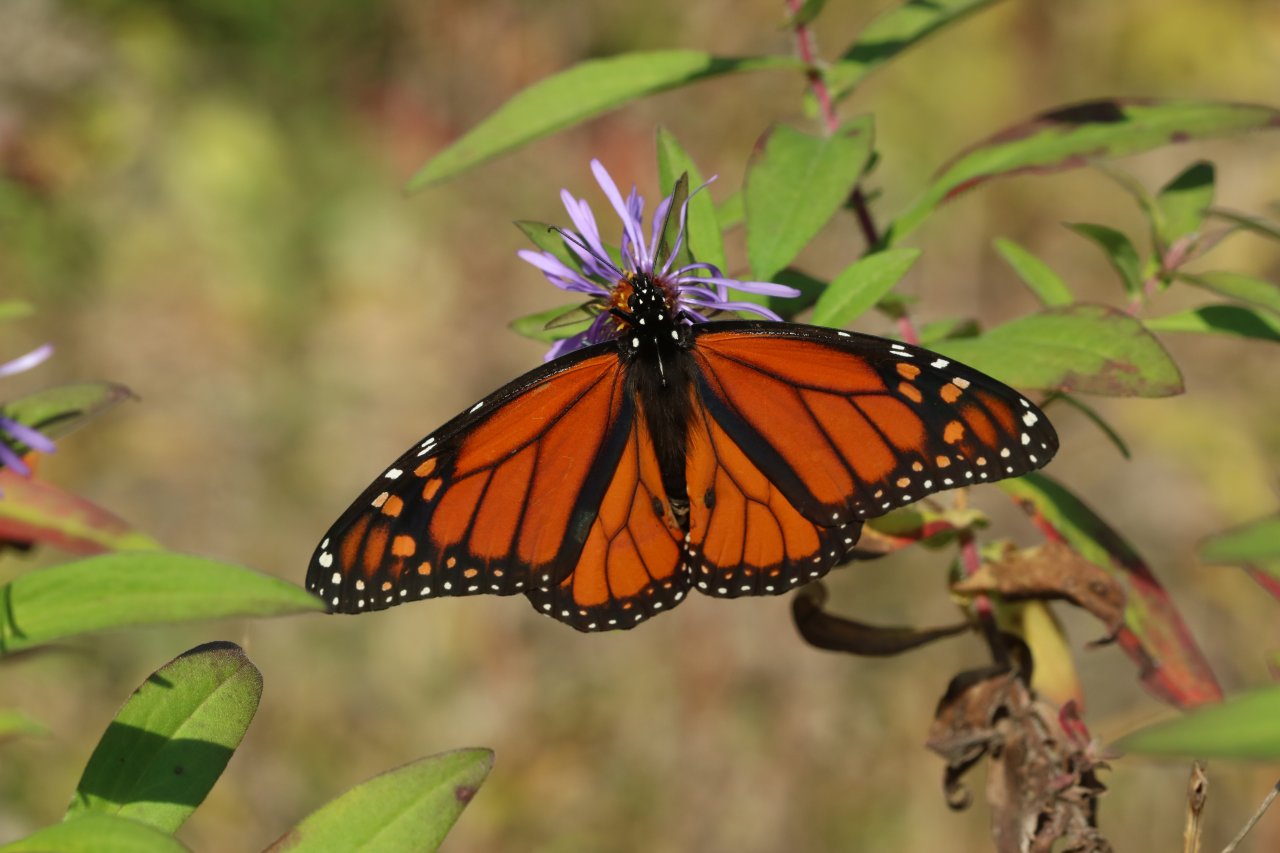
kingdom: Animalia
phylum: Arthropoda
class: Insecta
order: Lepidoptera
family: Nymphalidae
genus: Danaus
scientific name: Danaus plexippus
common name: Monarch
